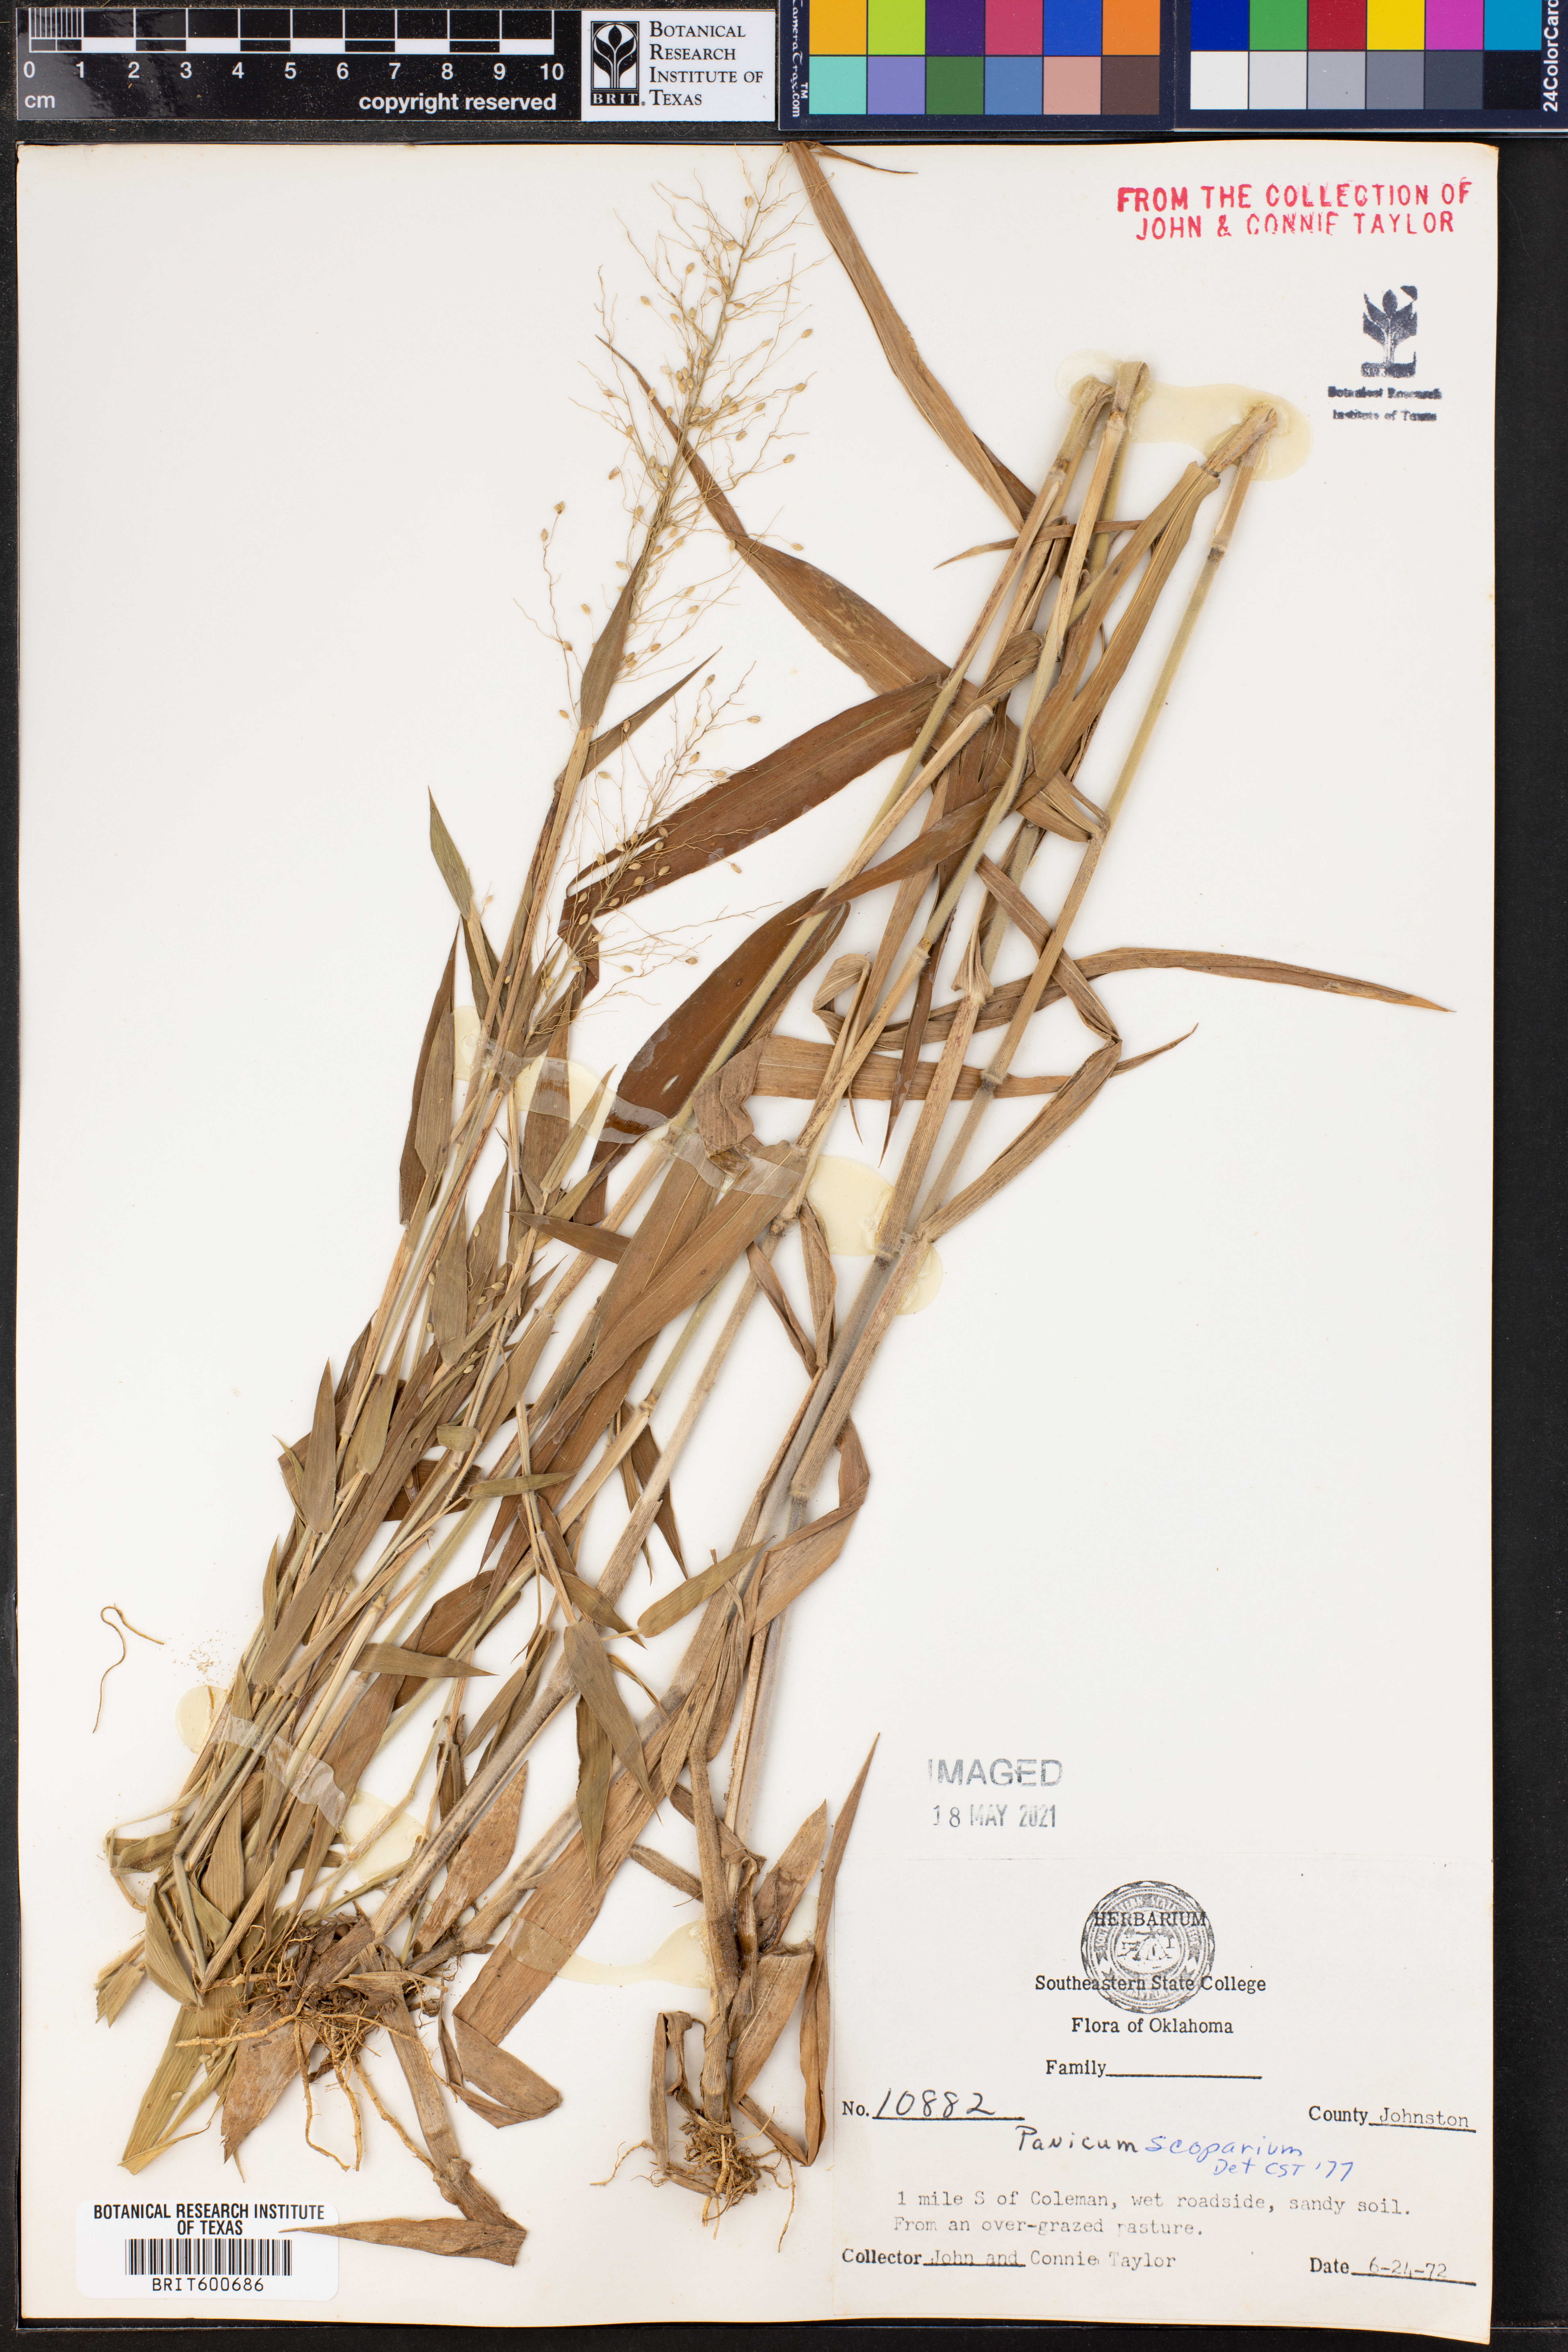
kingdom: Plantae
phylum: Tracheophyta
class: Liliopsida
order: Poales
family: Poaceae
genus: Dichanthelium
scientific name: Dichanthelium scribnerianum
